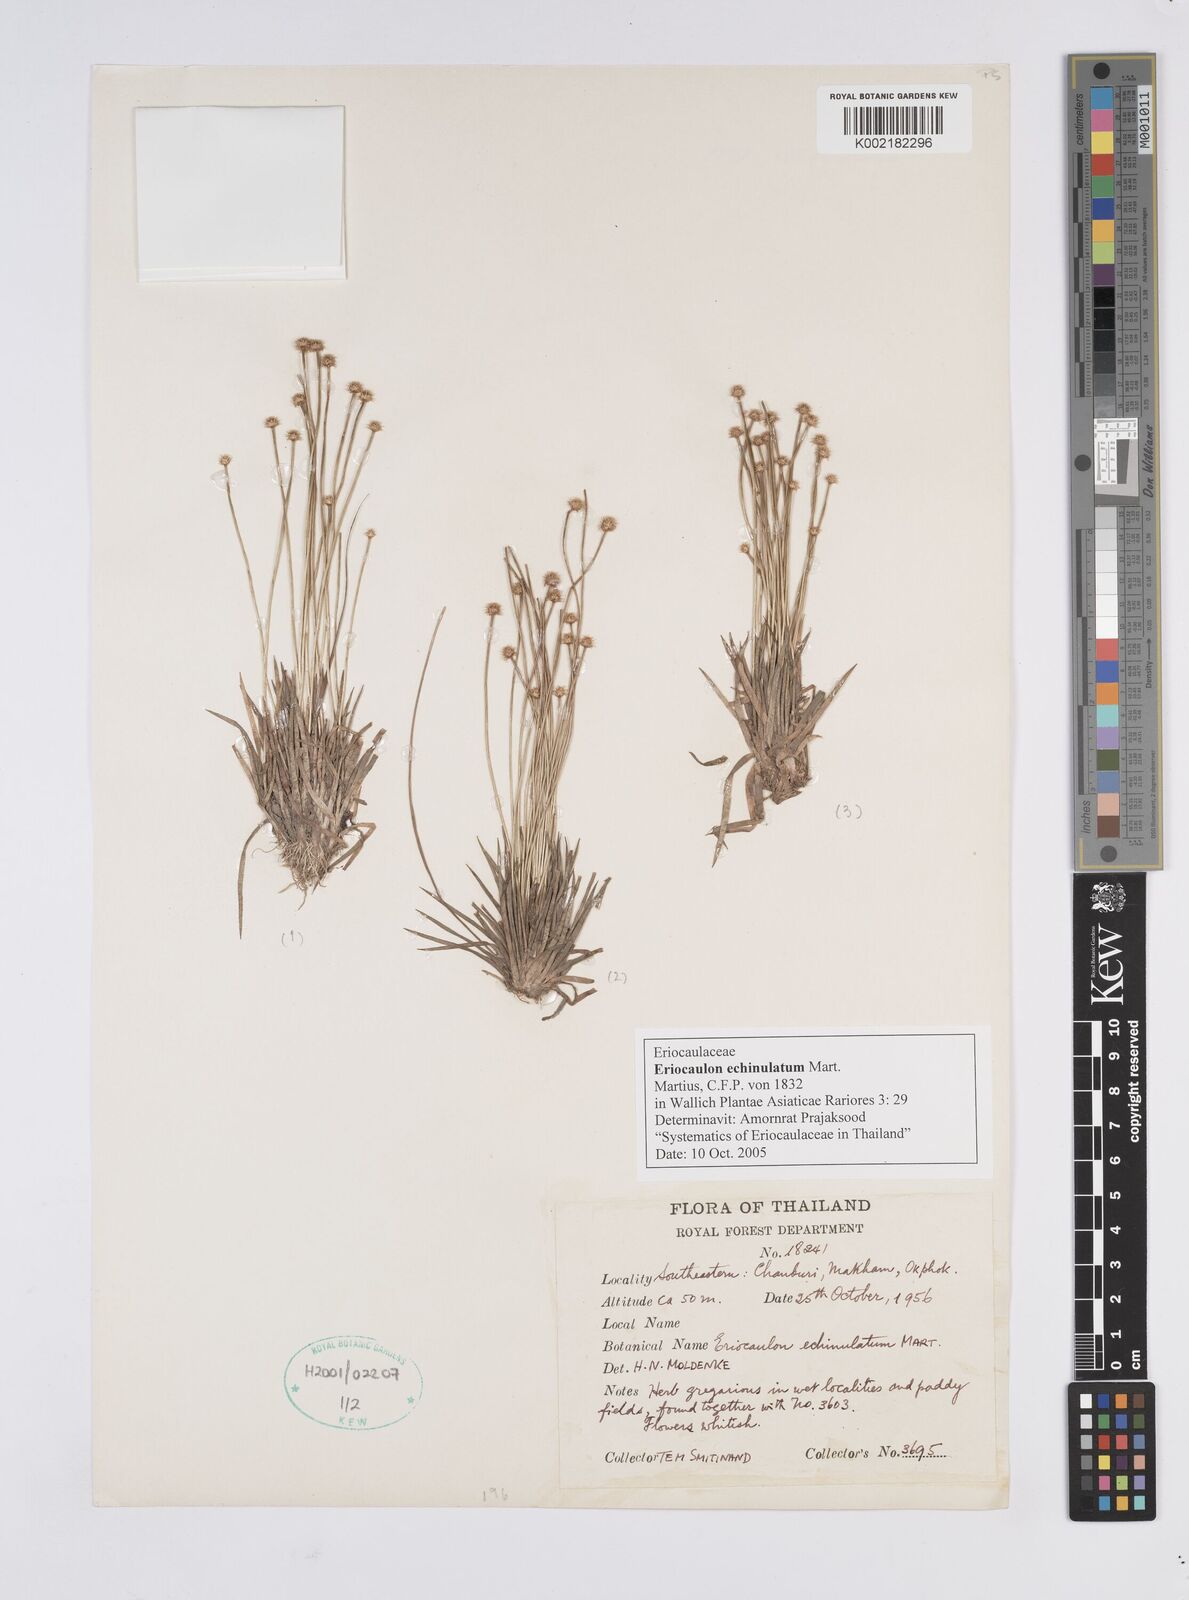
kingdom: Plantae
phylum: Tracheophyta
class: Liliopsida
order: Poales
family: Eriocaulaceae
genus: Eriocaulon
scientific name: Eriocaulon echinulatum
